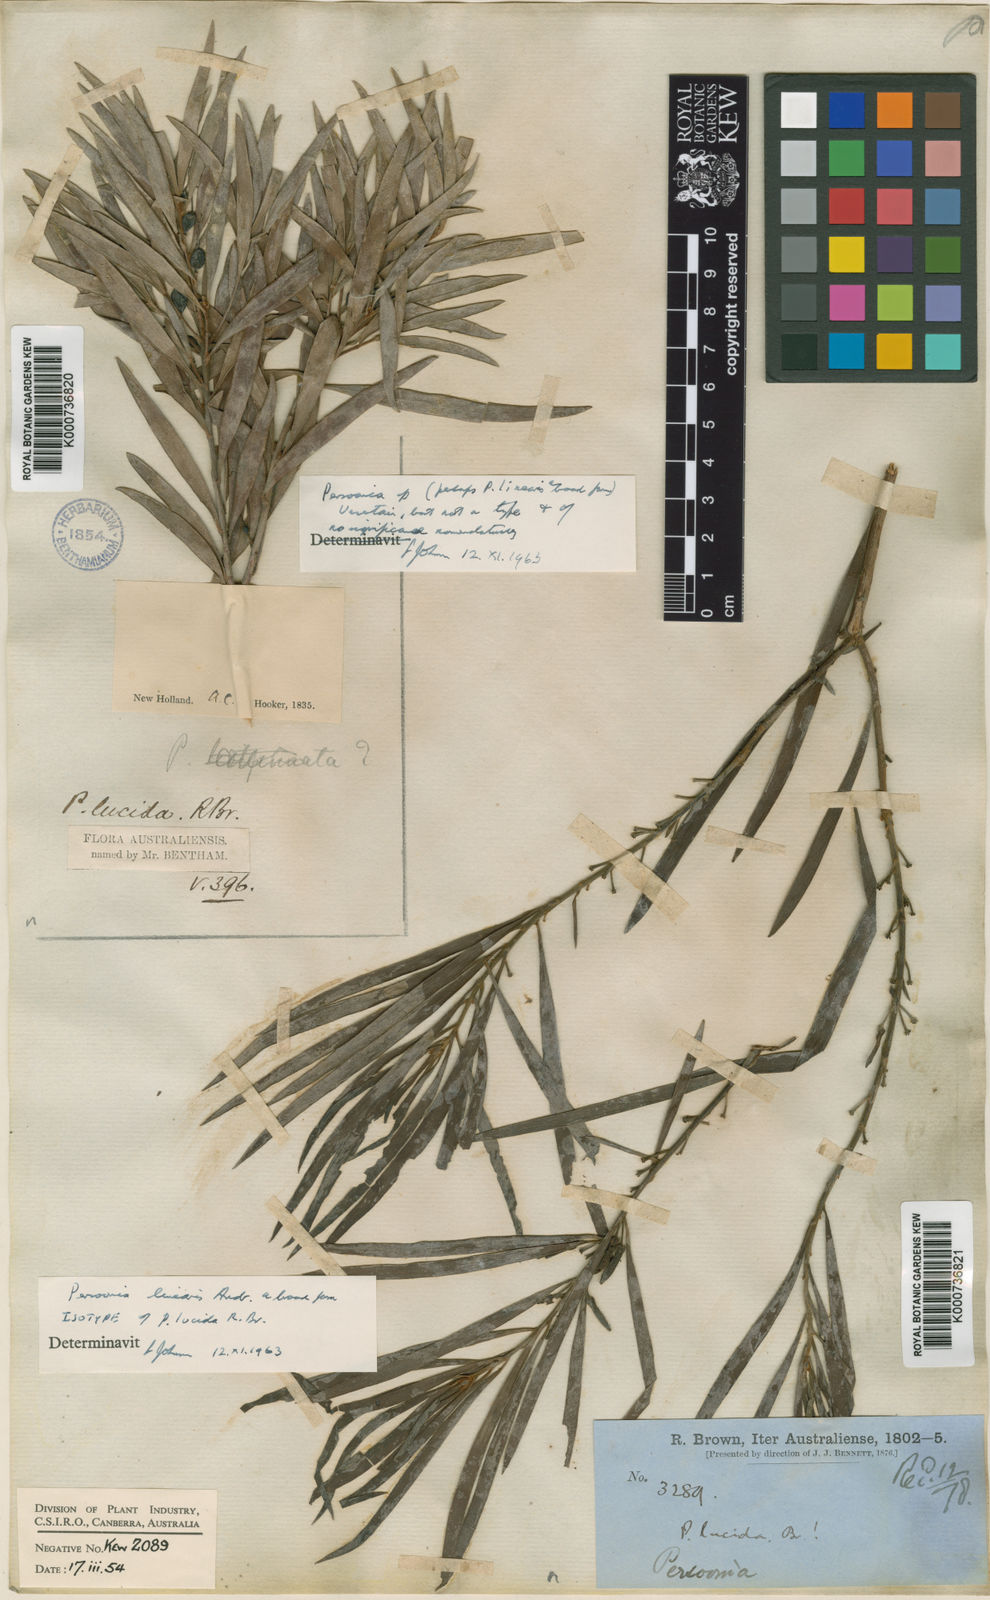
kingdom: Plantae
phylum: Tracheophyta
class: Magnoliopsida
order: Proteales
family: Proteaceae
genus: Persoonia
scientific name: Persoonia linearis
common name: Narrow-leaf geebung
